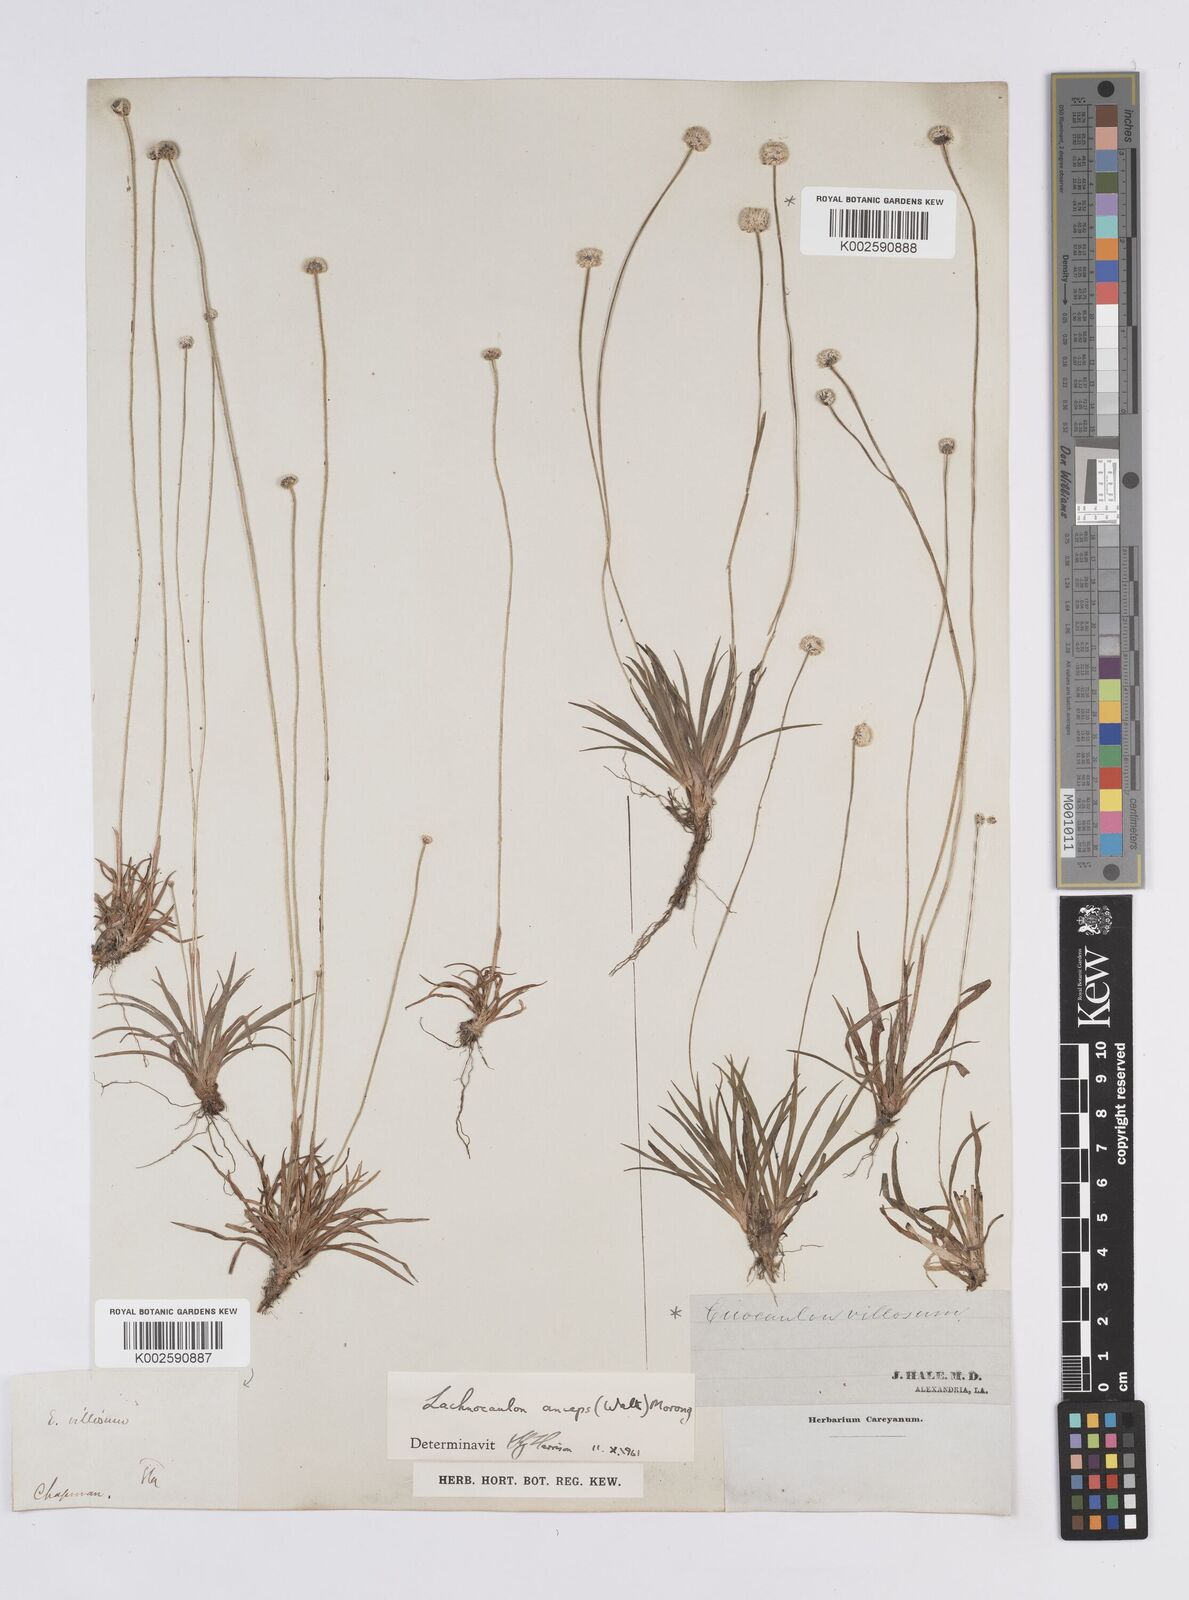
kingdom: Plantae
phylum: Tracheophyta
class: Liliopsida
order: Poales
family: Eriocaulaceae
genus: Paepalanthus
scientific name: Paepalanthus anceps
